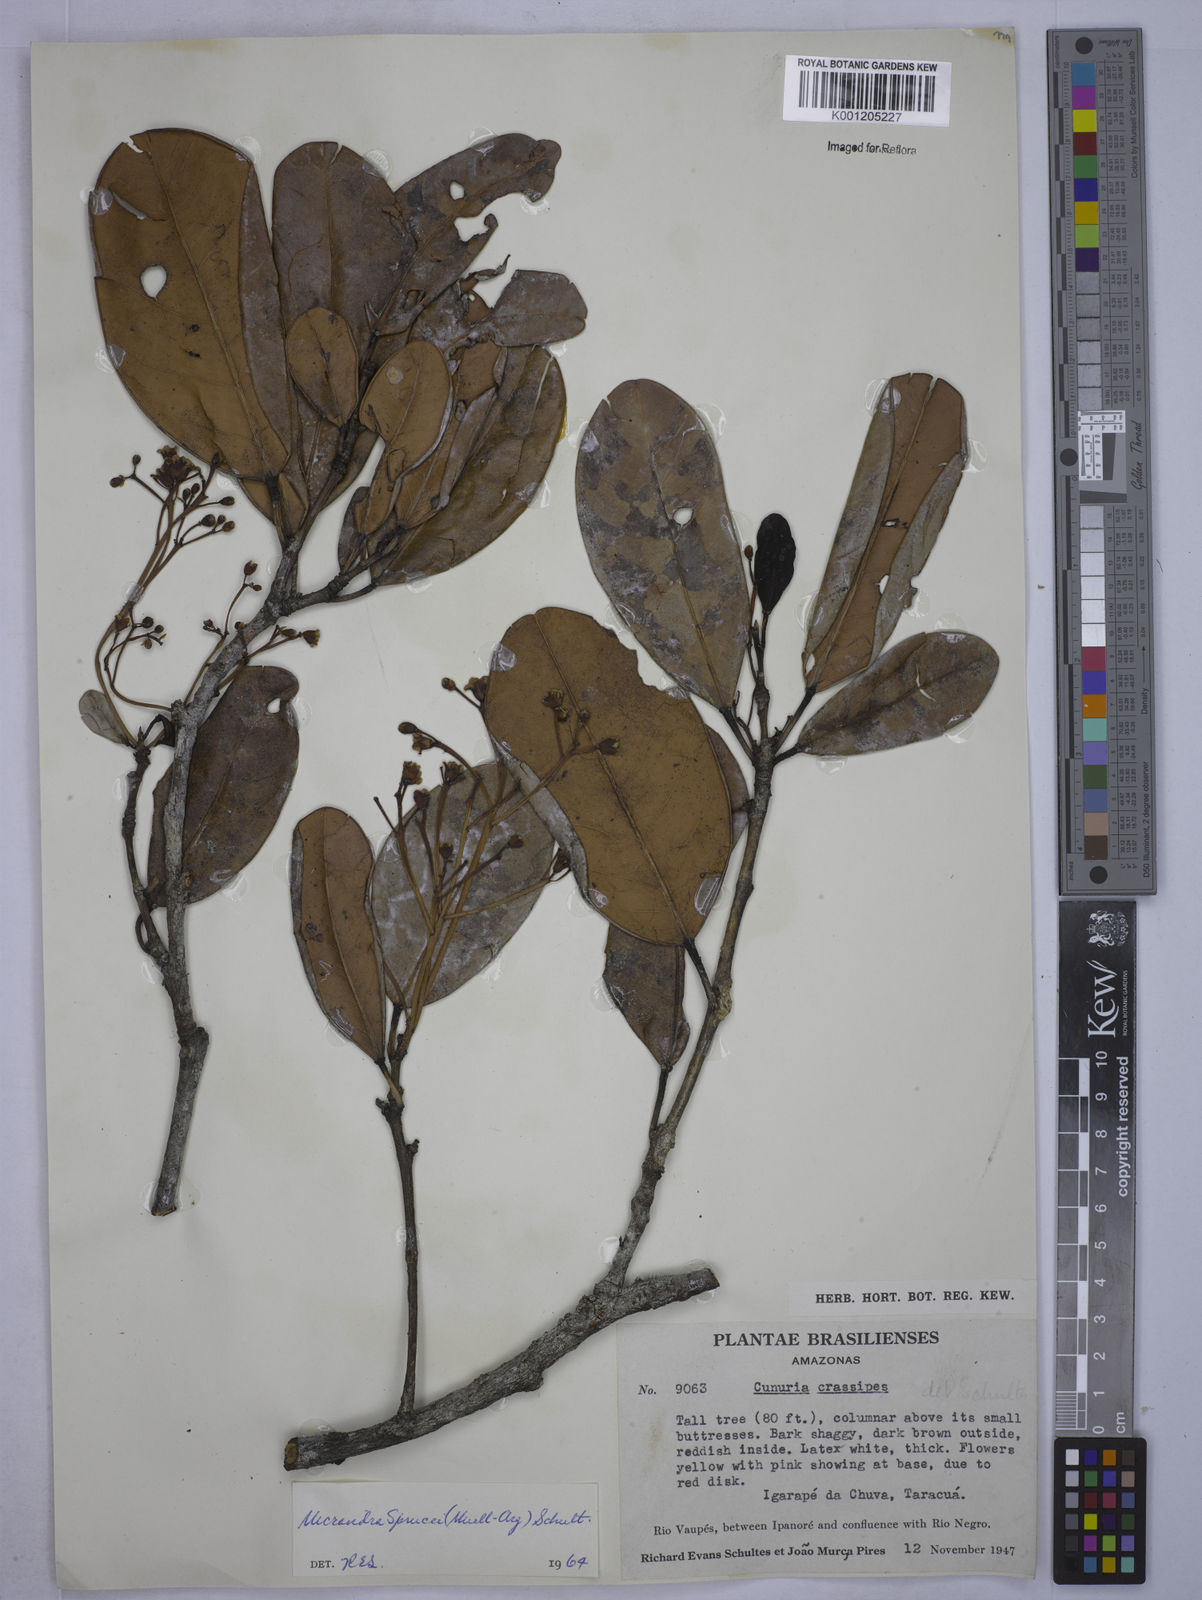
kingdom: Plantae
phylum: Tracheophyta
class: Magnoliopsida
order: Malpighiales
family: Euphorbiaceae
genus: Micrandra
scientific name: Micrandra
